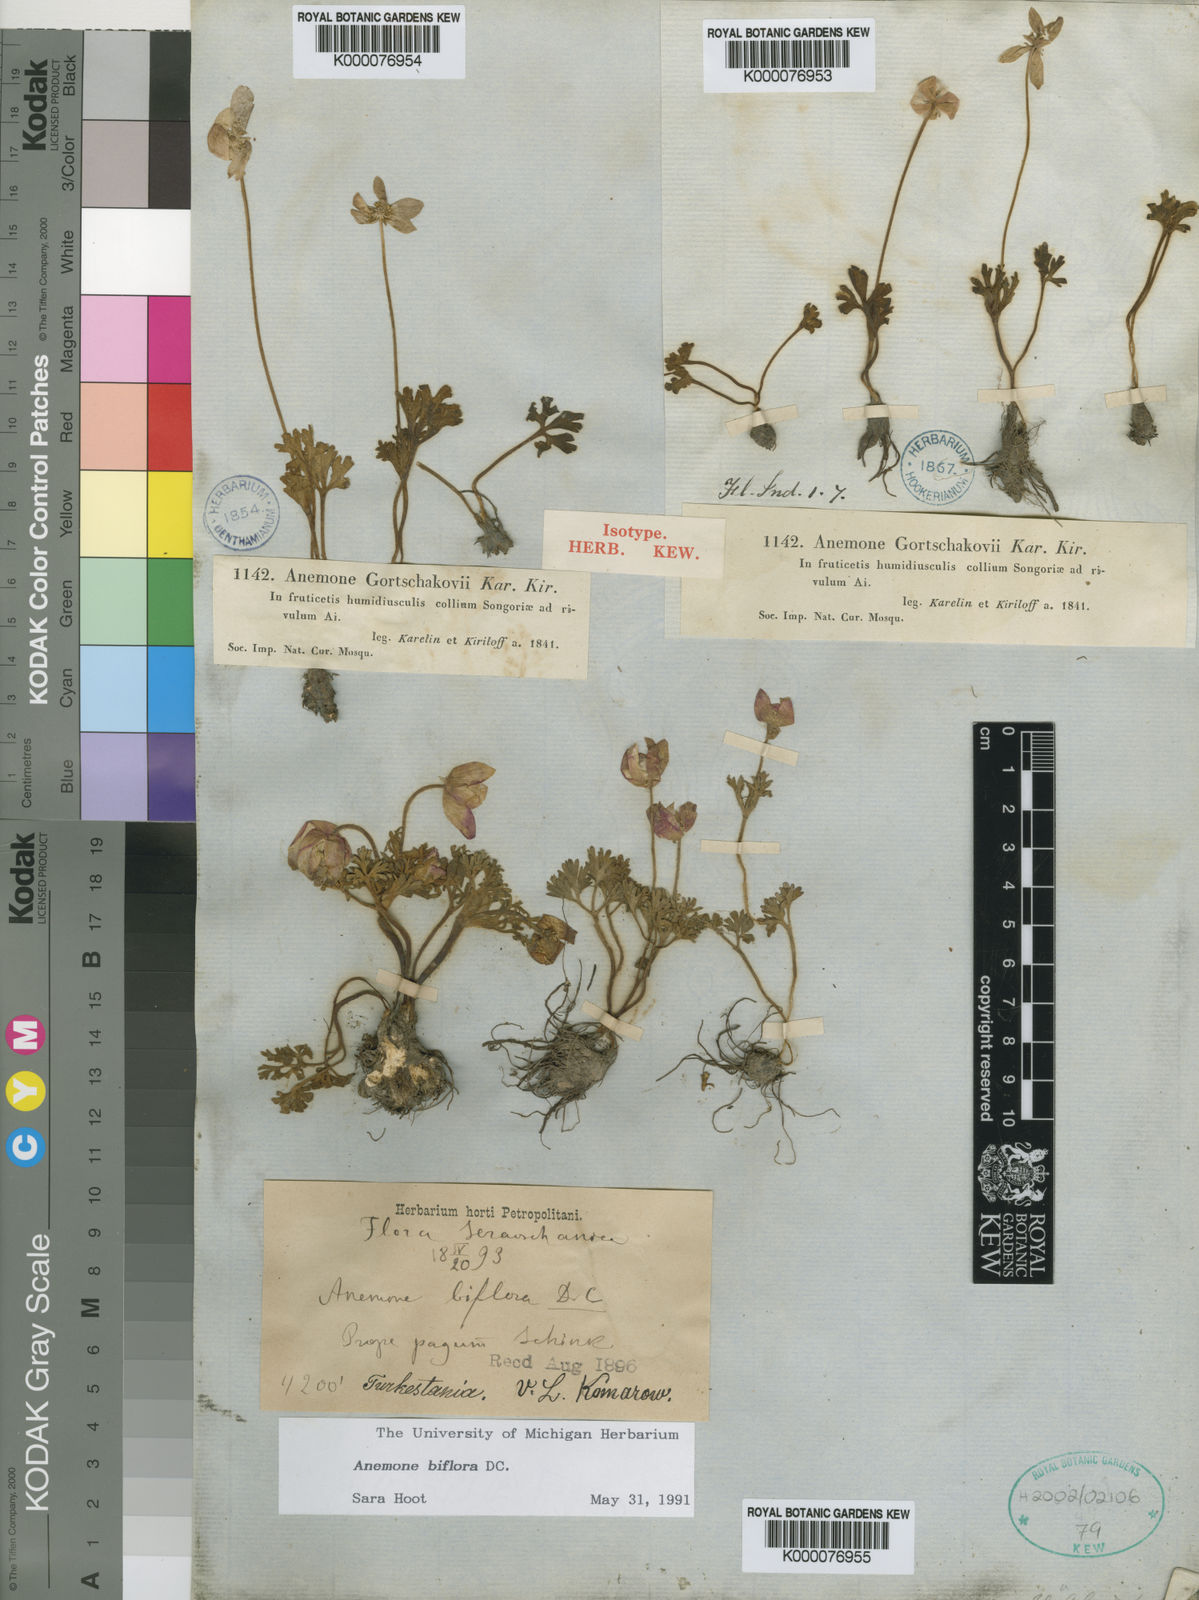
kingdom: Plantae
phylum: Tracheophyta
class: Magnoliopsida
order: Ranunculales
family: Ranunculaceae
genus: Anemone
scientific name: Anemone biflora
